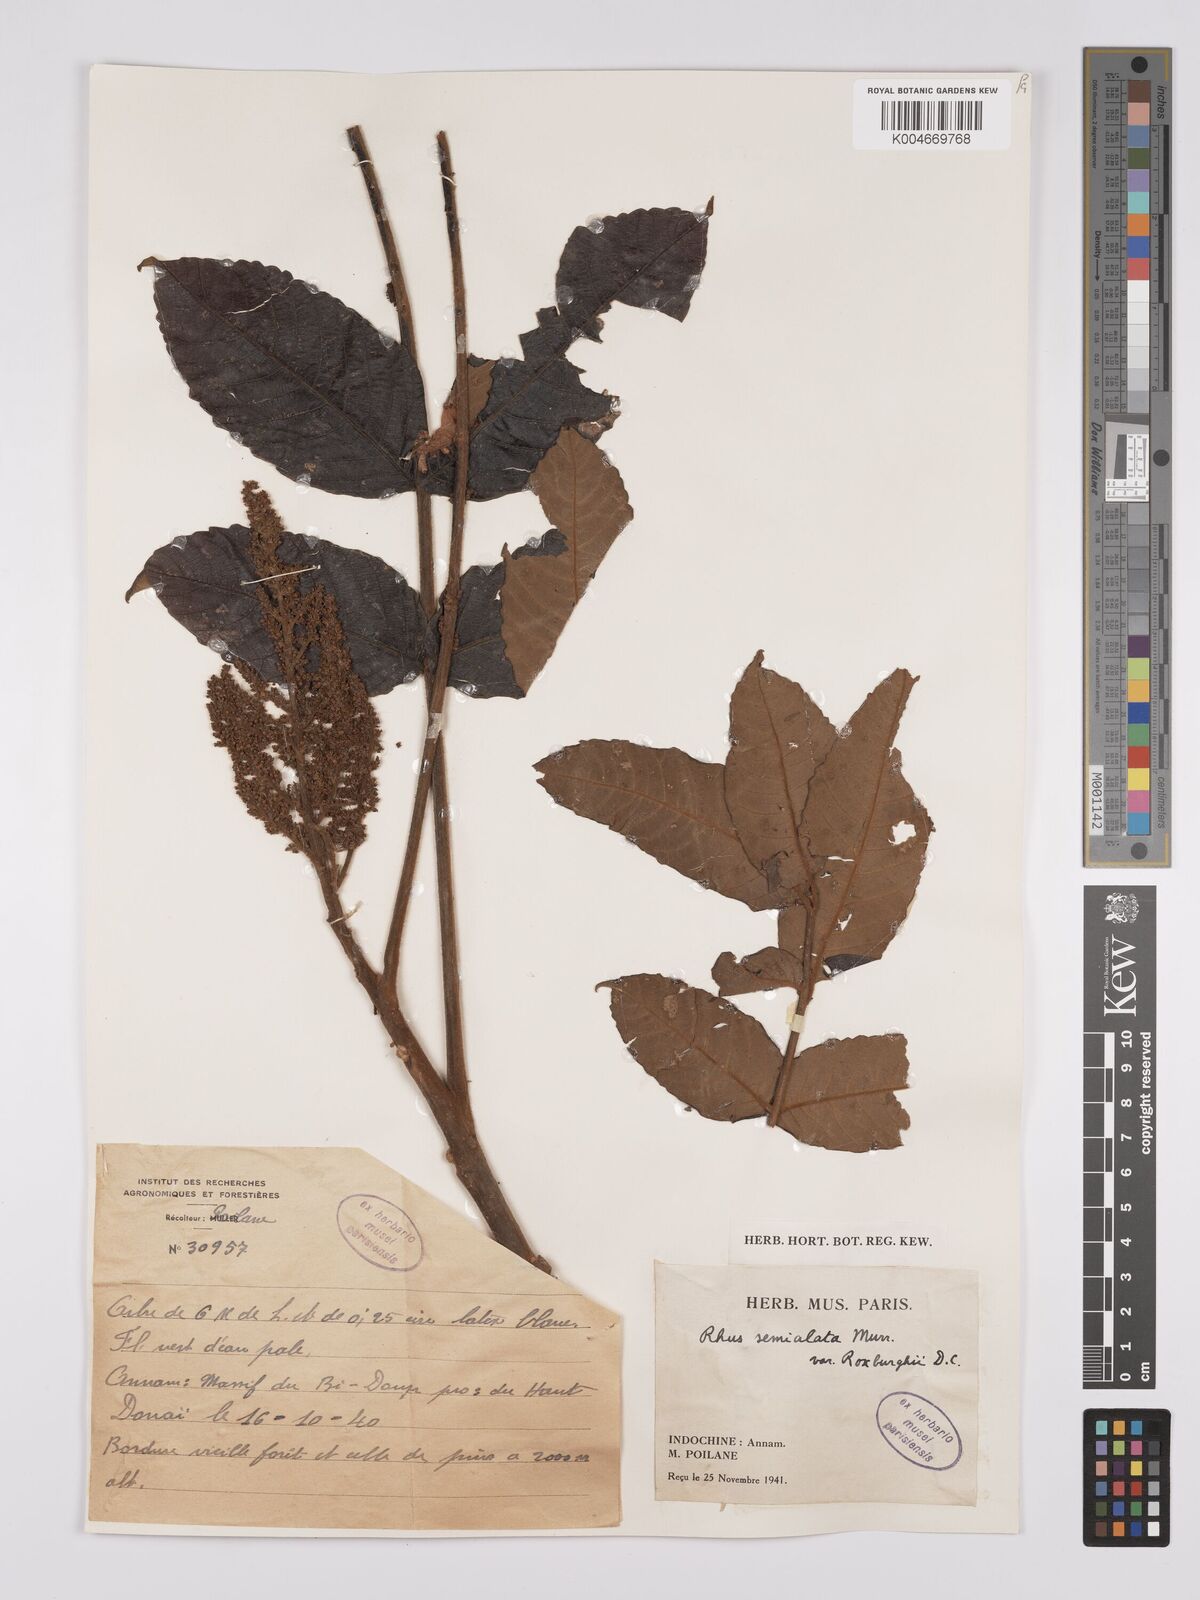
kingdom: Plantae
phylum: Tracheophyta
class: Magnoliopsida
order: Sapindales
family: Anacardiaceae
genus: Rhus
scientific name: Rhus chinensis
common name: Chinese gall
